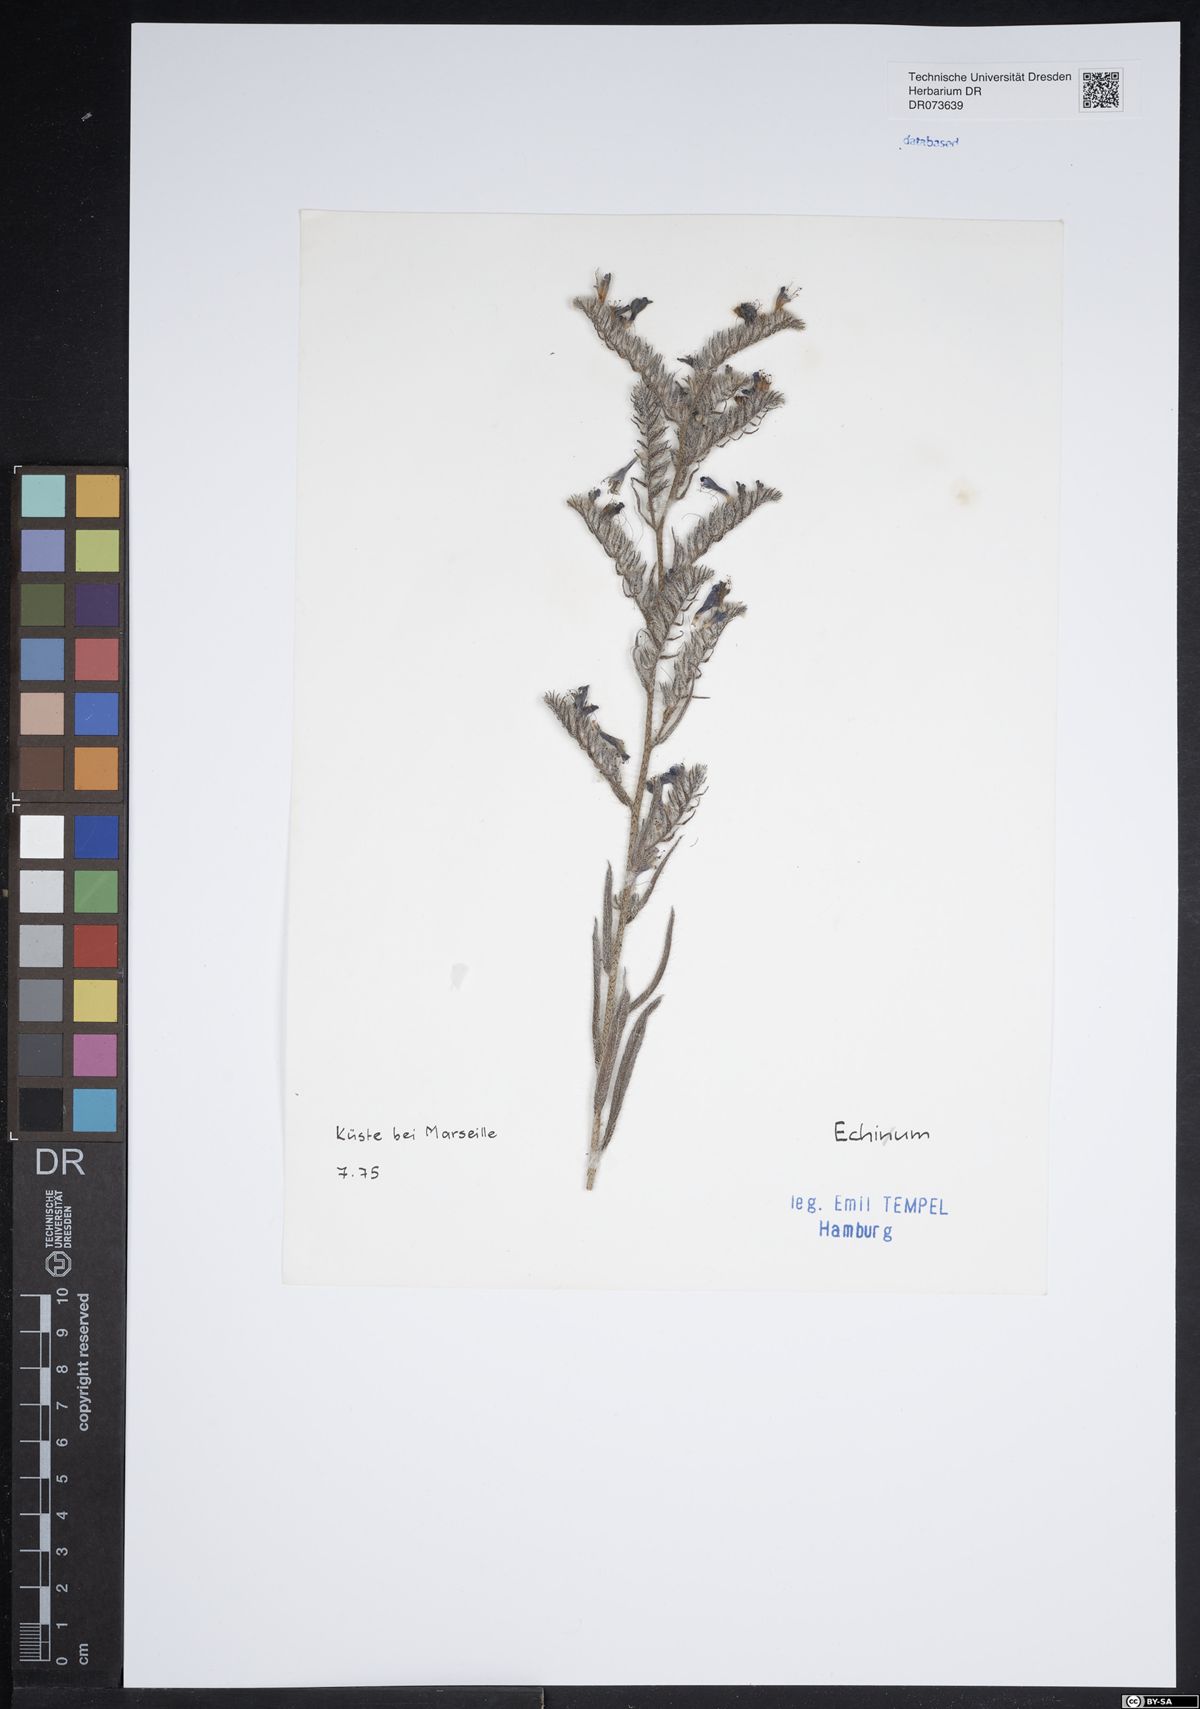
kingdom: Plantae
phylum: Tracheophyta
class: Magnoliopsida
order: Boraginales
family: Boraginaceae
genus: Echium
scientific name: Echium
